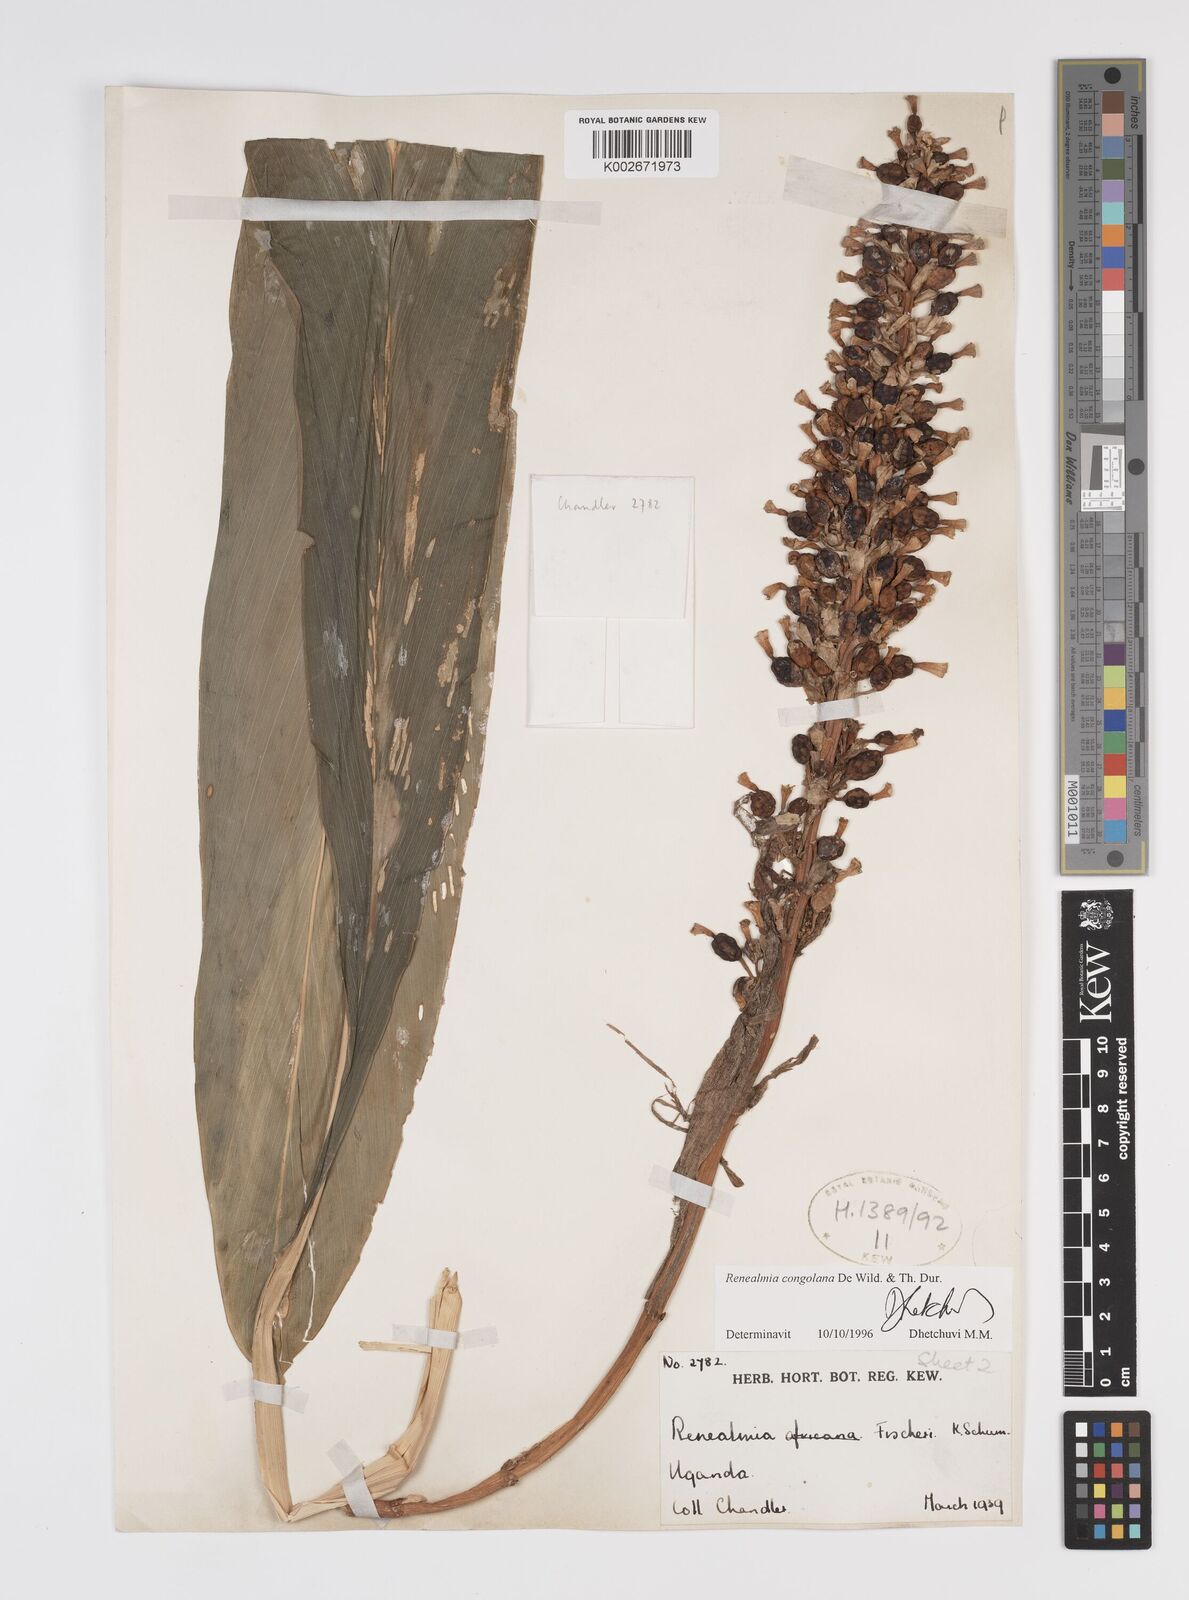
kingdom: Plantae
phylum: Tracheophyta
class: Liliopsida
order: Zingiberales
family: Zingiberaceae
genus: Renealmia
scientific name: Renealmia congolana
